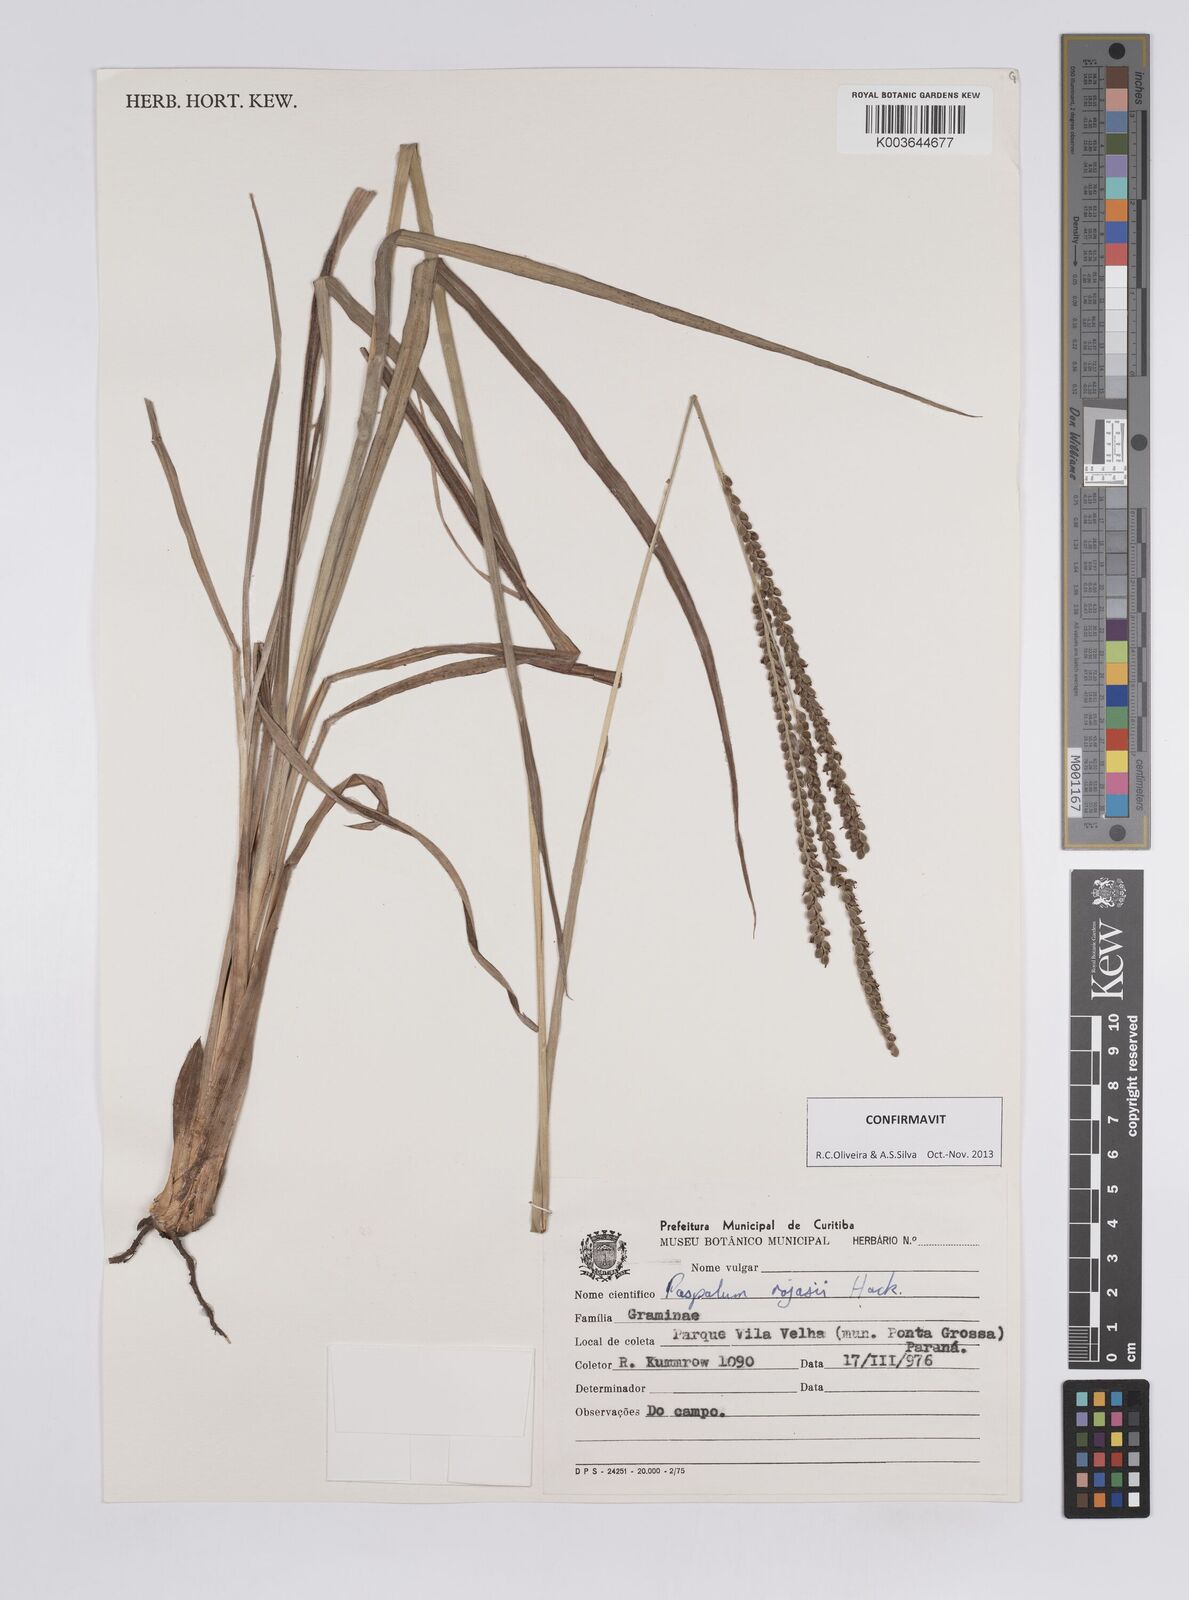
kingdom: Plantae
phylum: Tracheophyta
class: Liliopsida
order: Poales
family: Poaceae
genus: Paspalum
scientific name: Paspalum guenoarum
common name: Wintergreen paspalum
